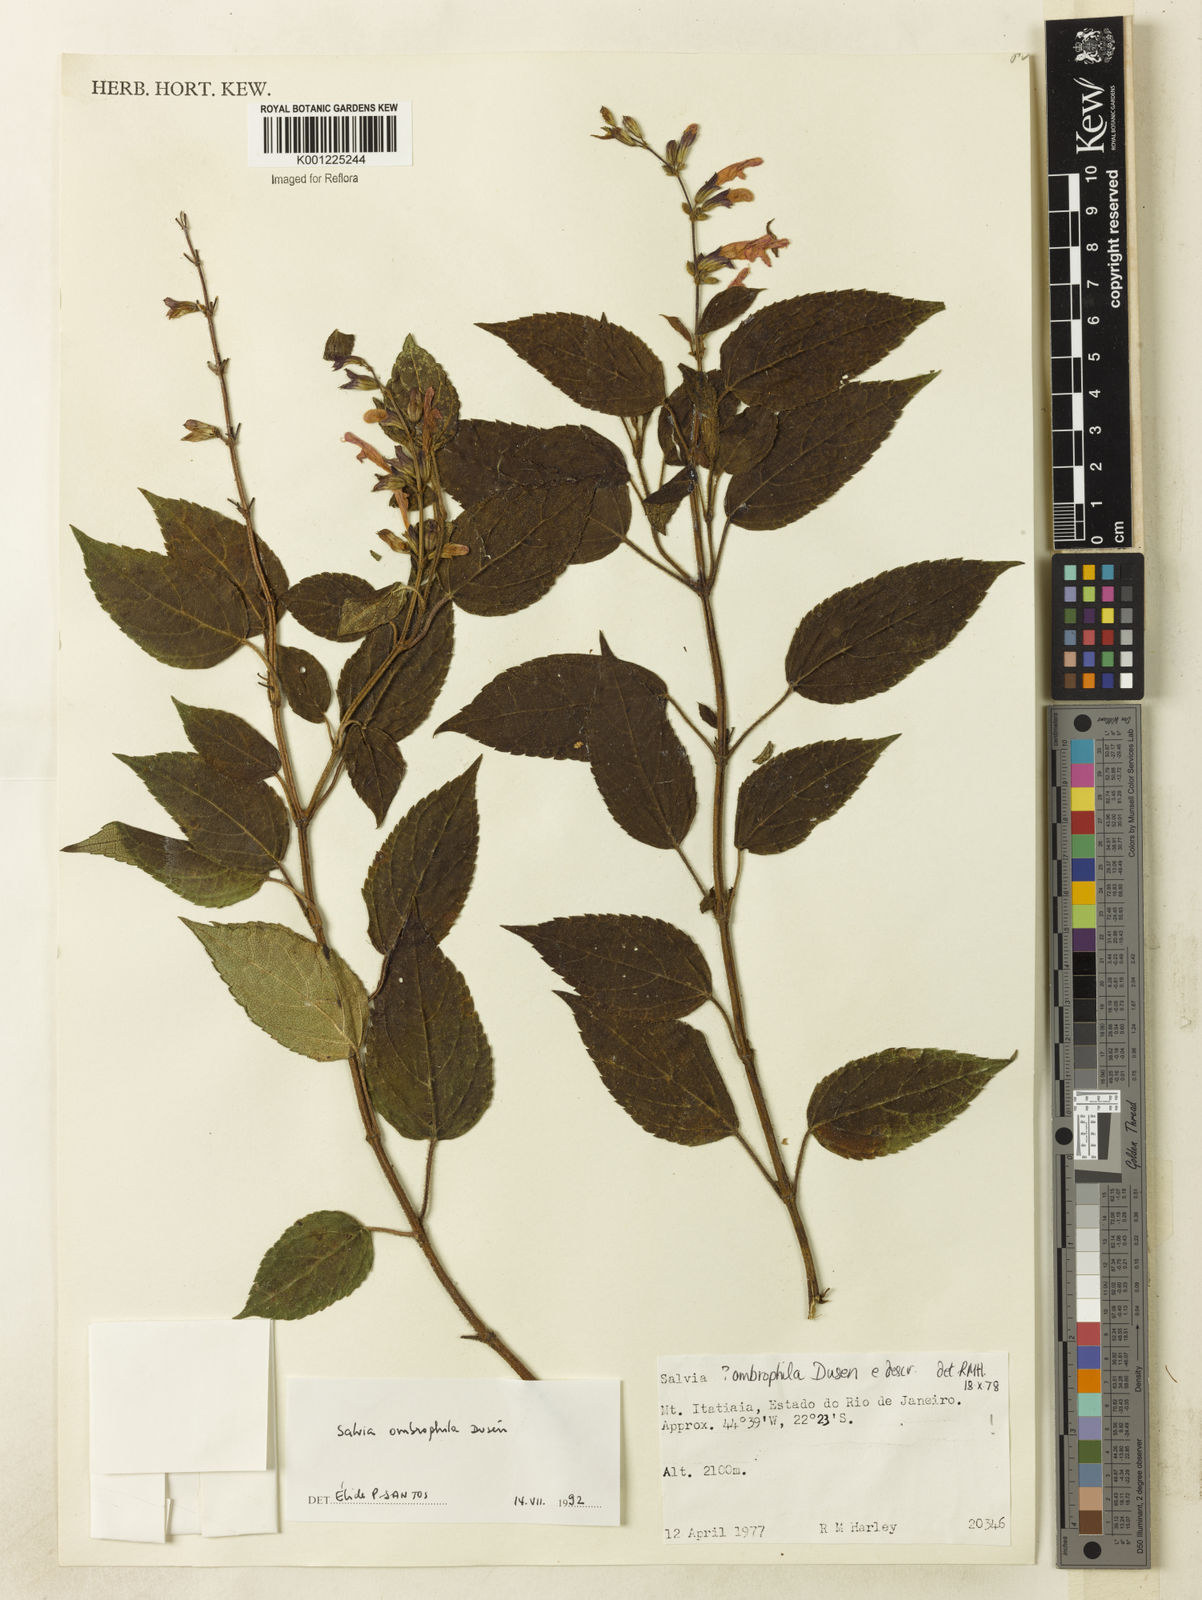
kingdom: Plantae
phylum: Tracheophyta
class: Magnoliopsida
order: Lamiales
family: Lamiaceae
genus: Salvia
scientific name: Salvia
